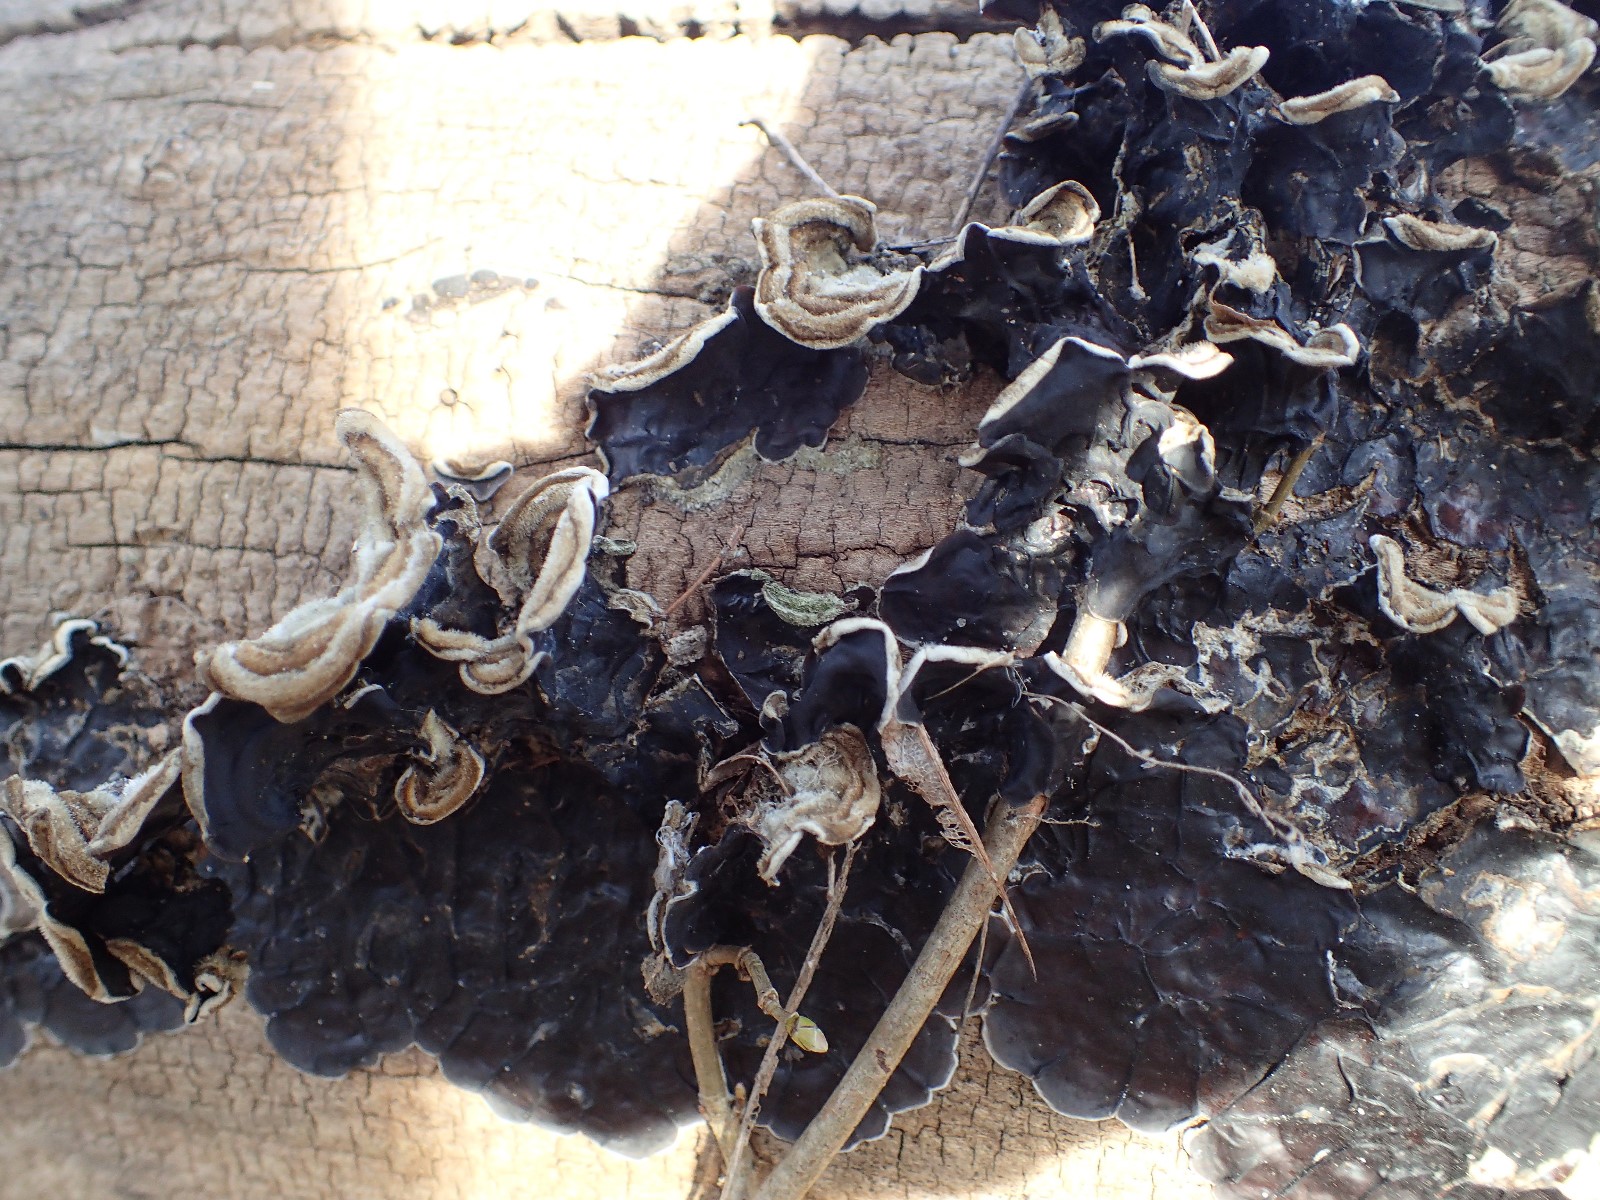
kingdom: Fungi
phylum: Basidiomycota
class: Agaricomycetes
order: Auriculariales
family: Auriculariaceae
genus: Auricularia
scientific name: Auricularia mesenterica
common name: håret judasøre
